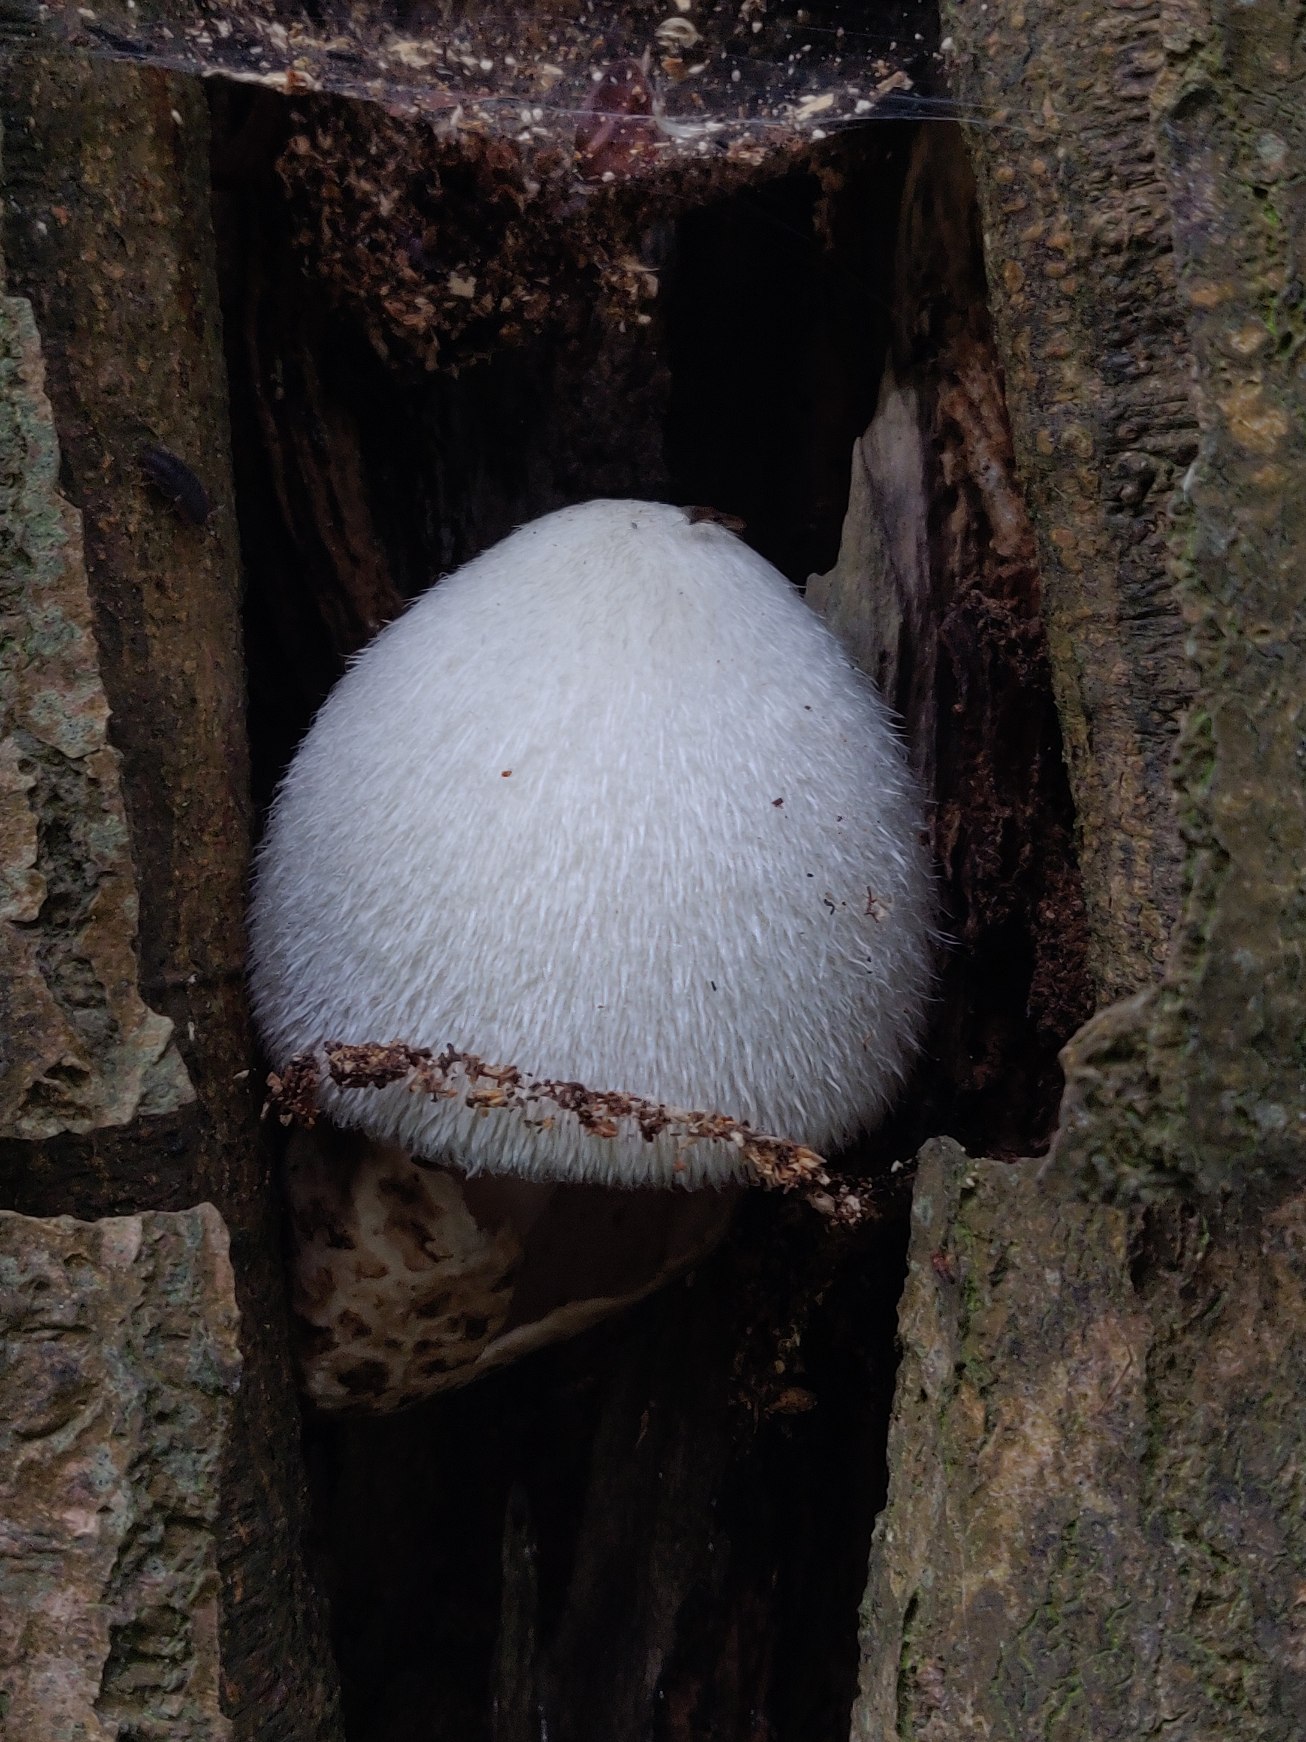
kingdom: Fungi
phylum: Basidiomycota
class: Agaricomycetes
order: Agaricales
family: Pluteaceae
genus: Volvariella
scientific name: Volvariella bombycina
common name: Silkehåret posesvamp
